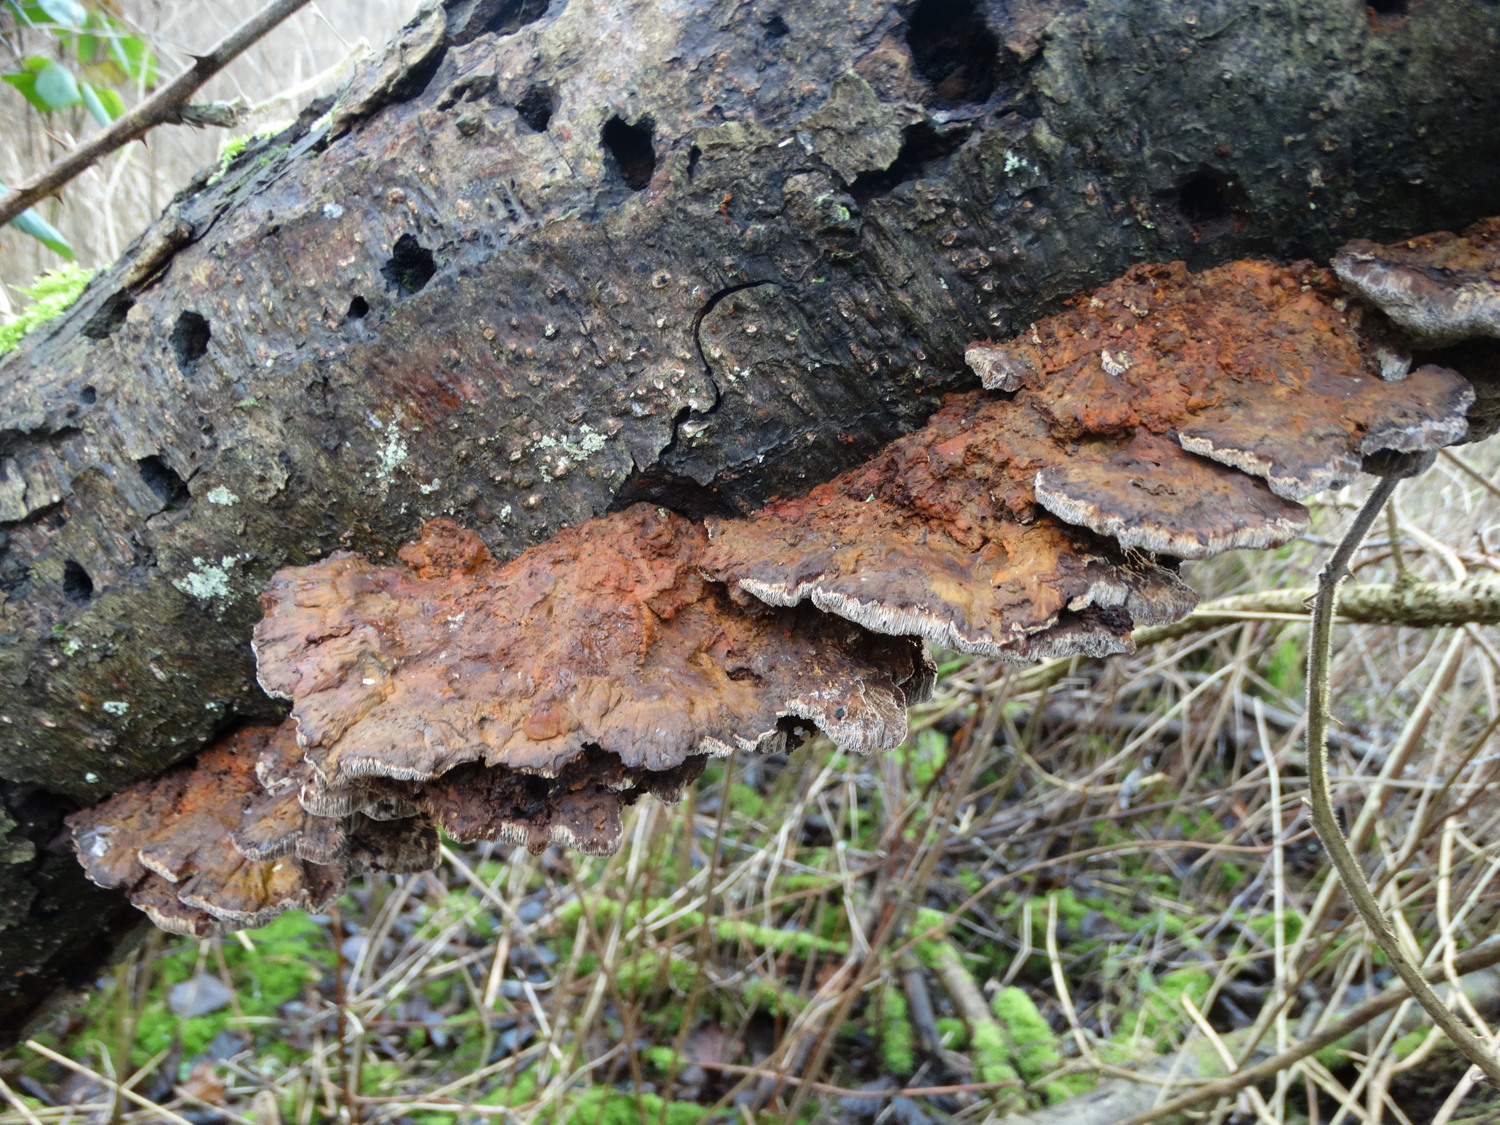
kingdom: Fungi
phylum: Basidiomycota
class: Agaricomycetes
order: Hymenochaetales
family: Hymenochaetaceae
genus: Xanthoporia
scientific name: Xanthoporia radiata
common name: elle-spejlporesvamp
